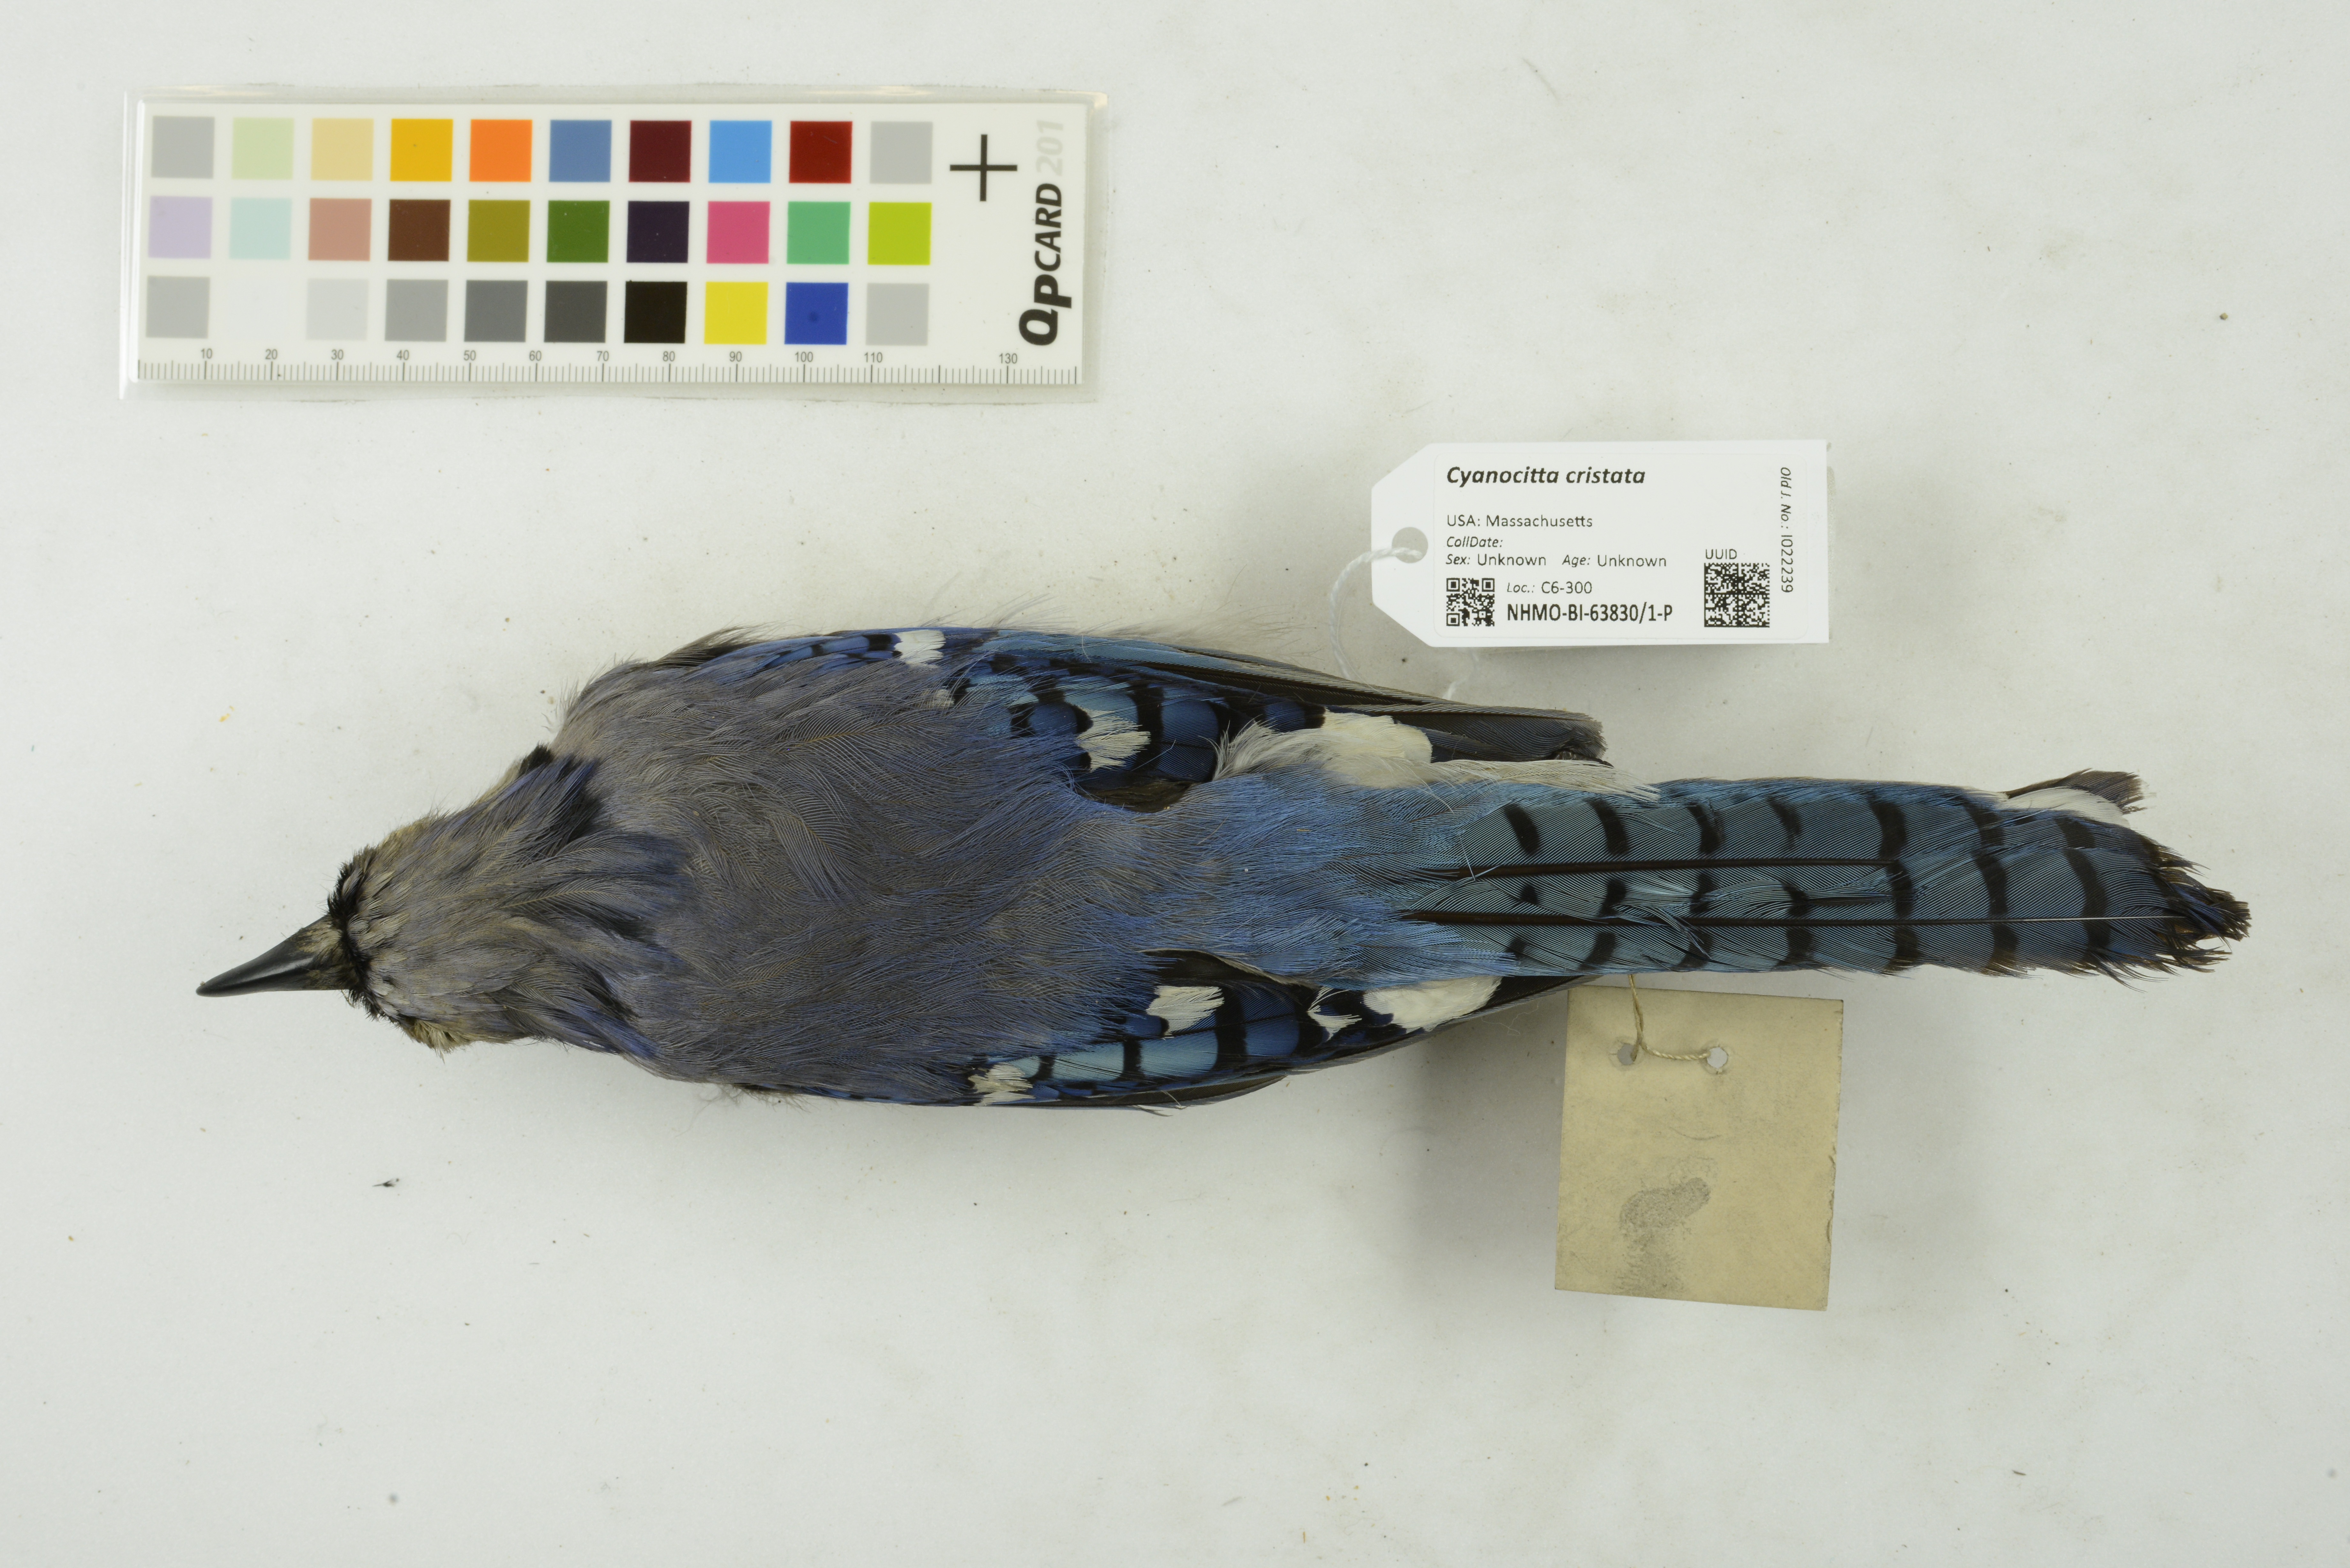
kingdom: Animalia
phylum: Chordata
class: Aves
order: Passeriformes
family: Corvidae
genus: Cyanocitta
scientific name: Cyanocitta cristata
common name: Blue jay
